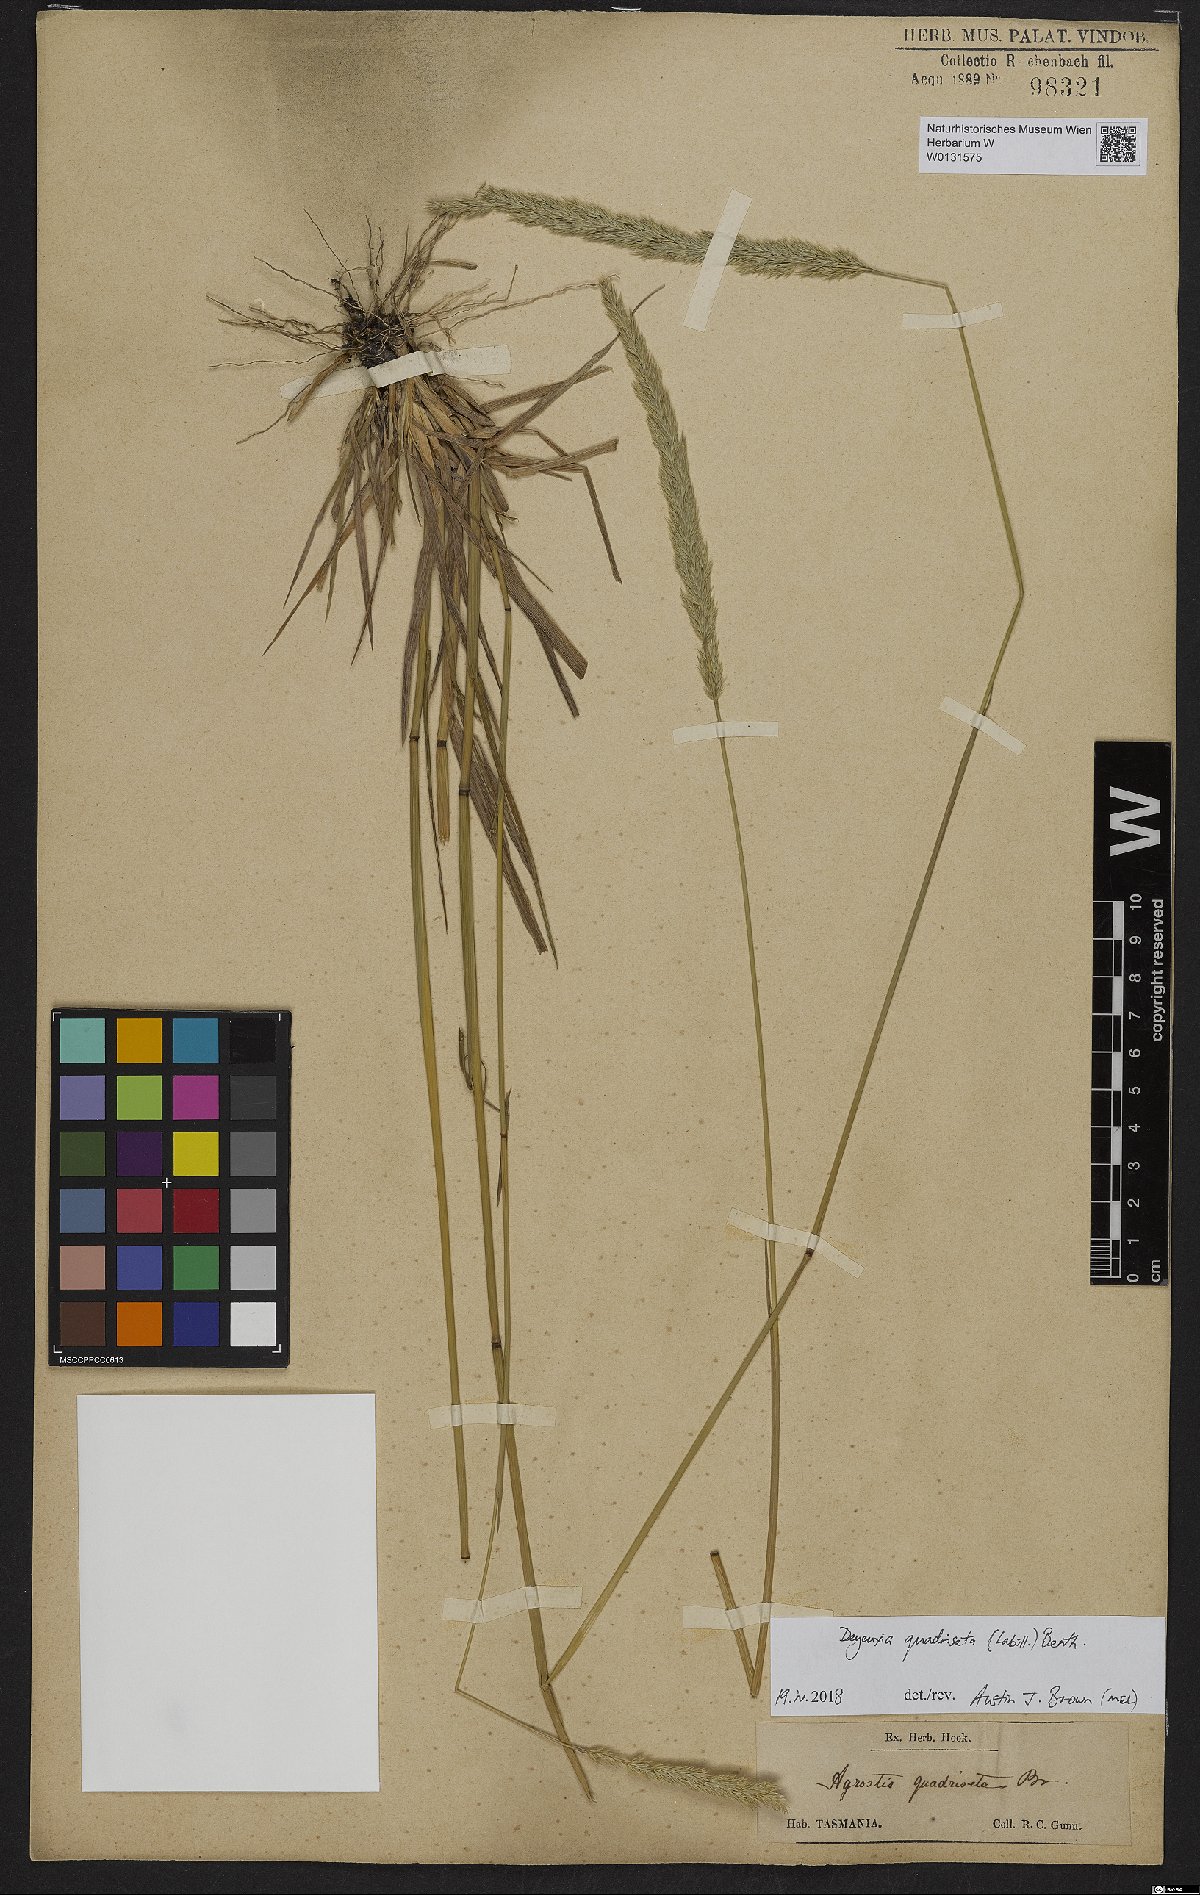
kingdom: Plantae
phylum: Tracheophyta
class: Liliopsida
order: Poales
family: Poaceae
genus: Calamagrostis
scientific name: Calamagrostis quadriseta
